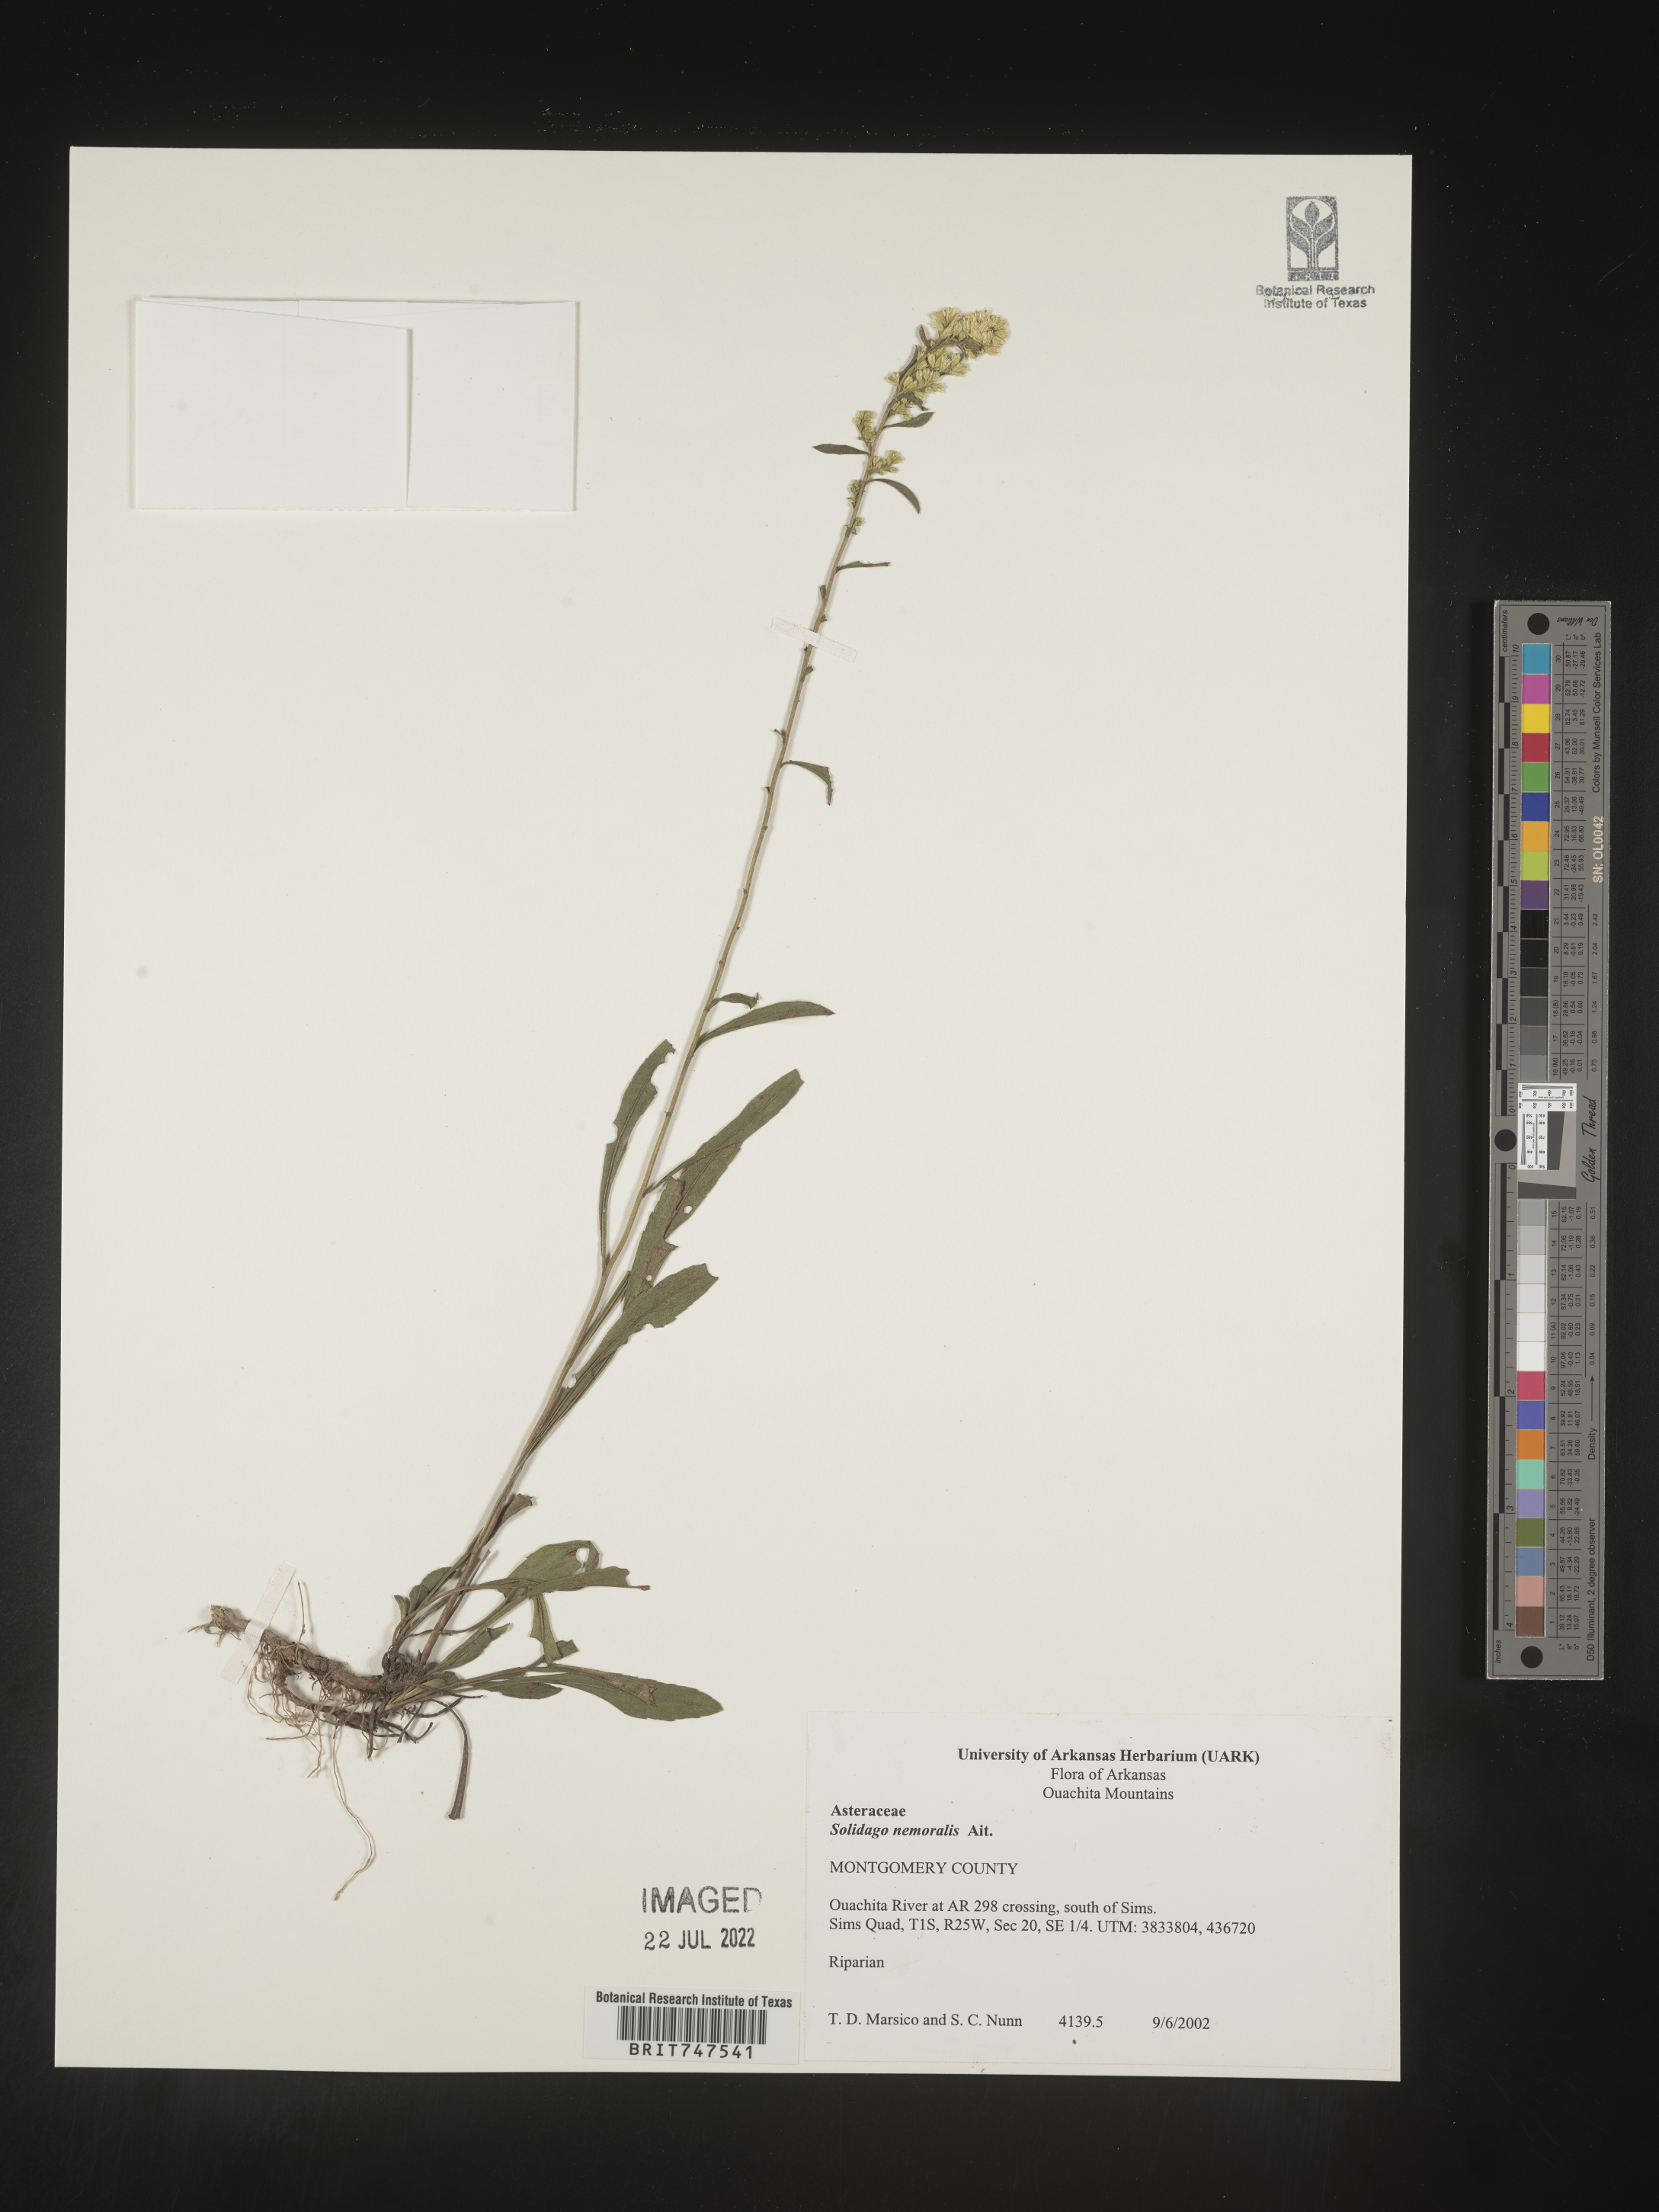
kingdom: Plantae
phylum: Tracheophyta
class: Magnoliopsida
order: Asterales
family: Asteraceae
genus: Solidago
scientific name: Solidago nemoralis
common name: Grey goldenrod
